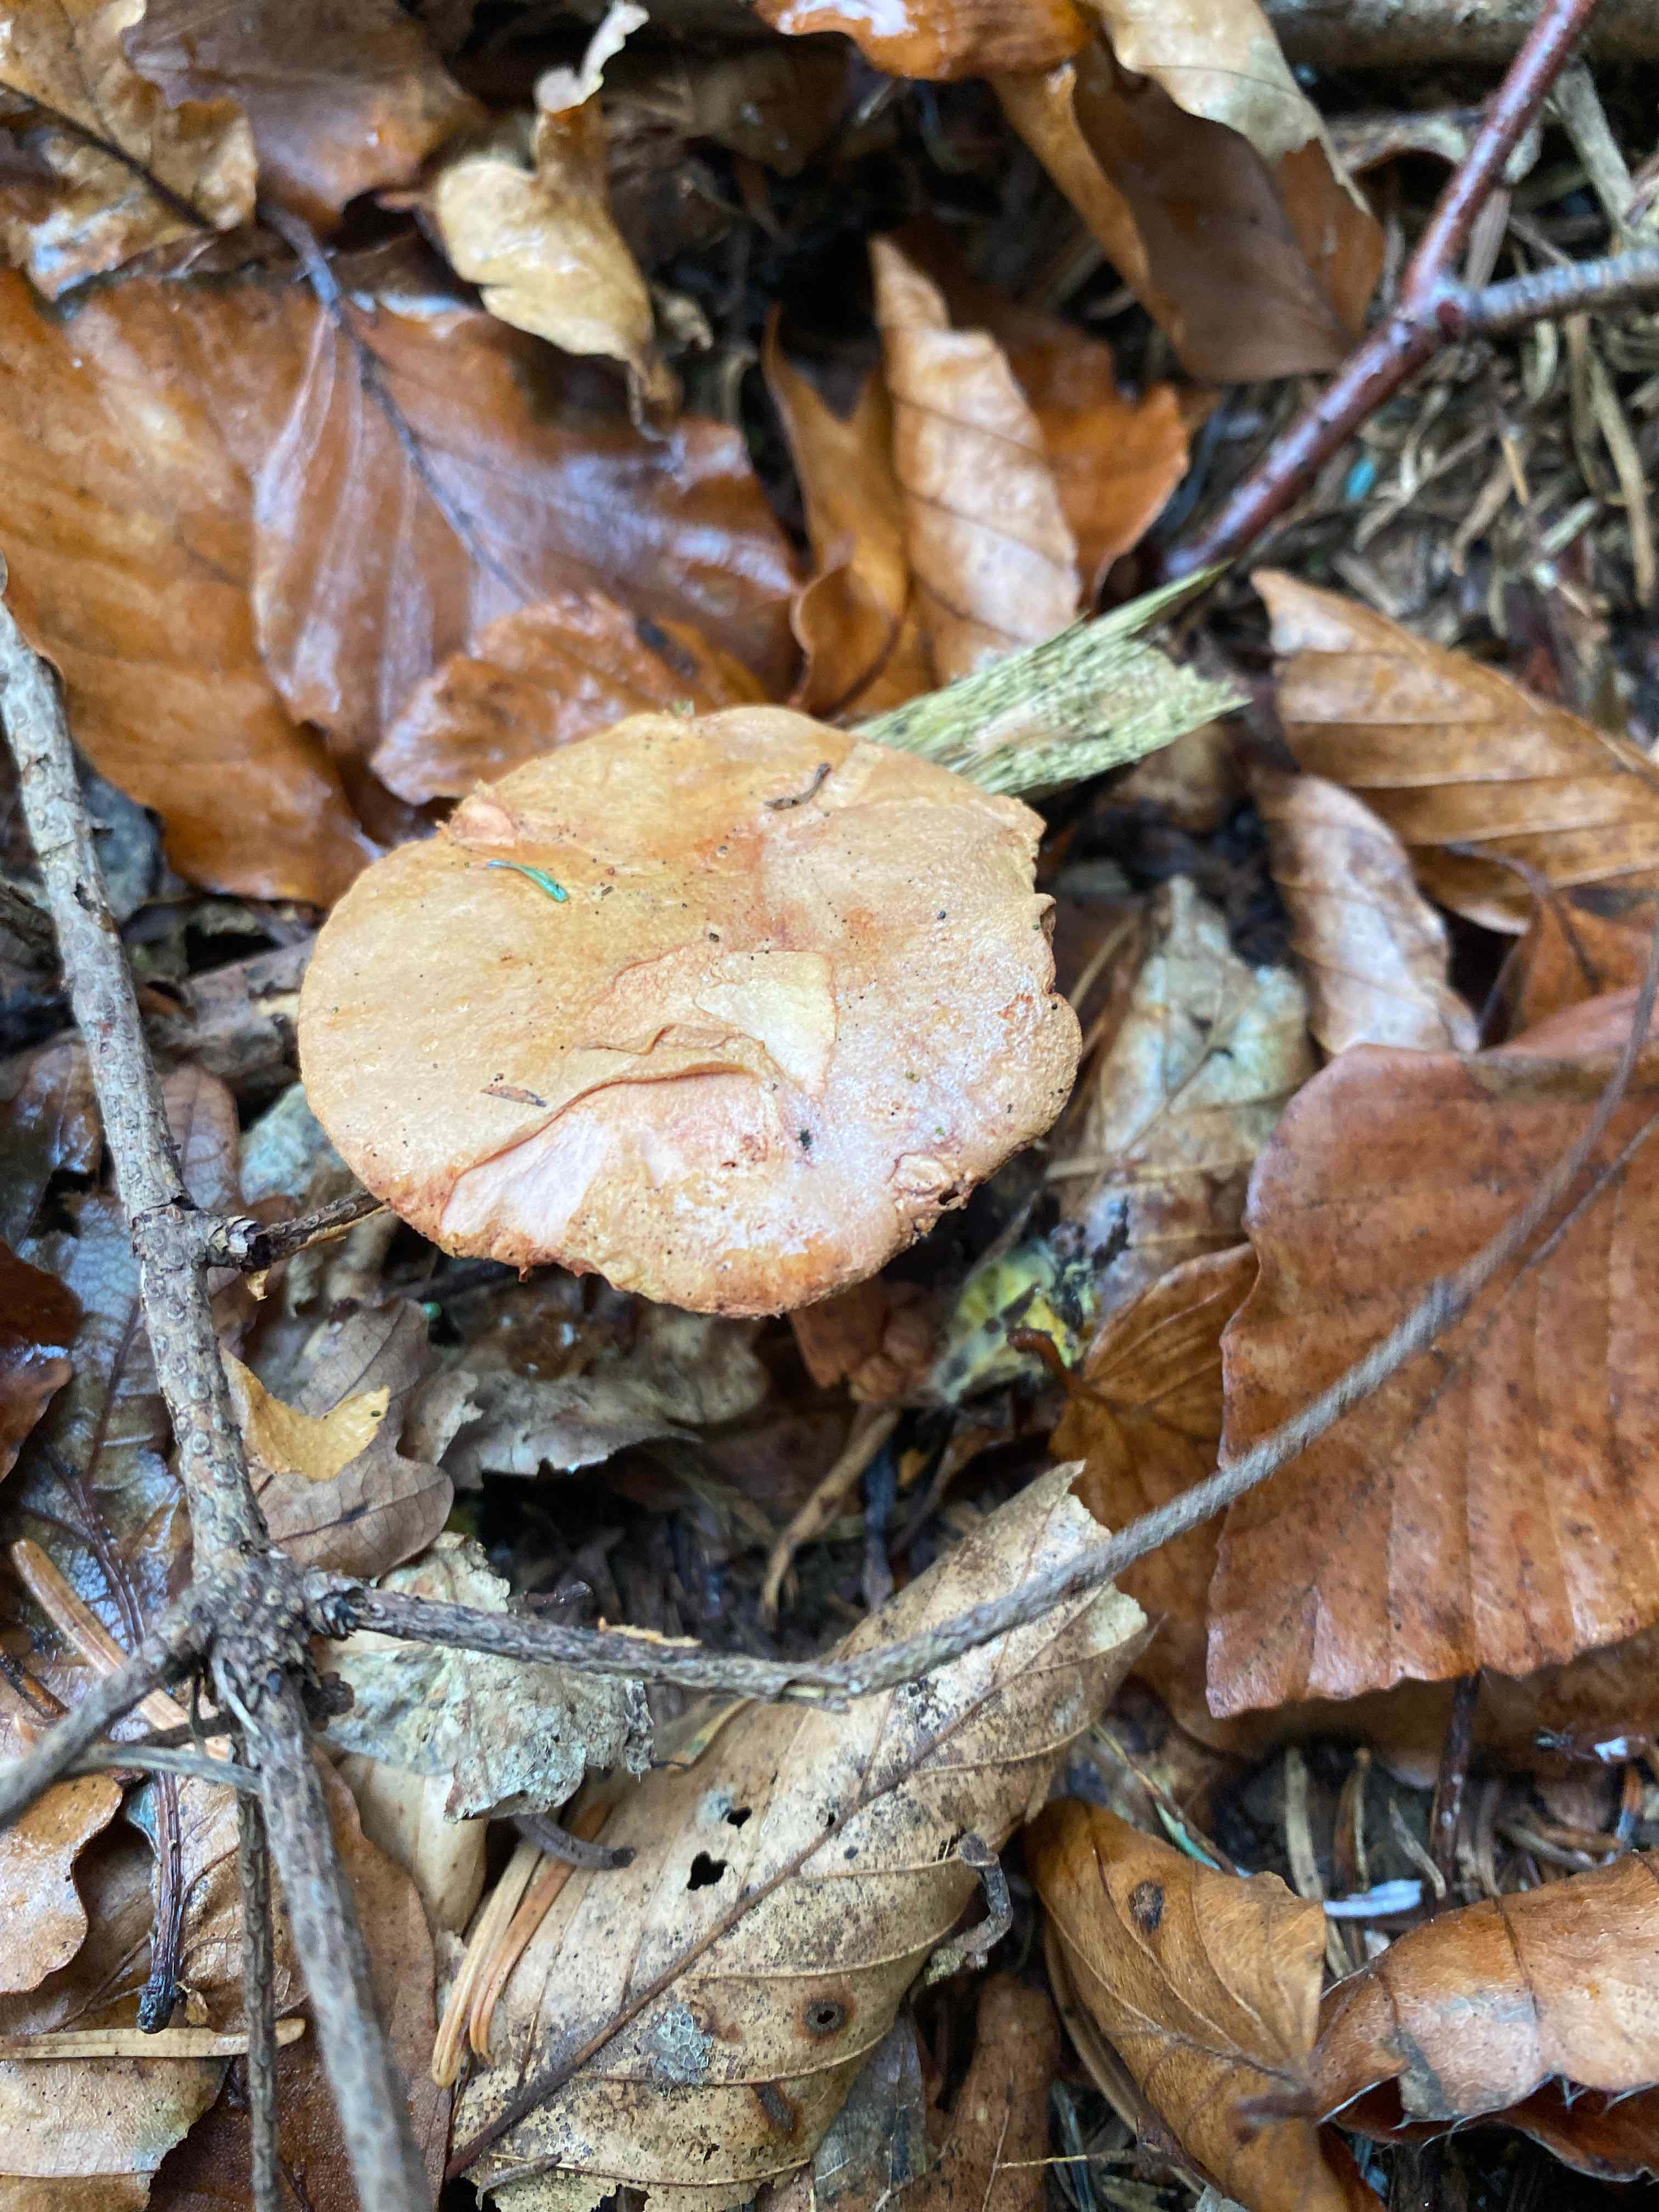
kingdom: Fungi
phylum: Basidiomycota
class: Agaricomycetes
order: Boletales
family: Boletaceae
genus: Chalciporus
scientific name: Chalciporus piperatus
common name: peberrørhat
